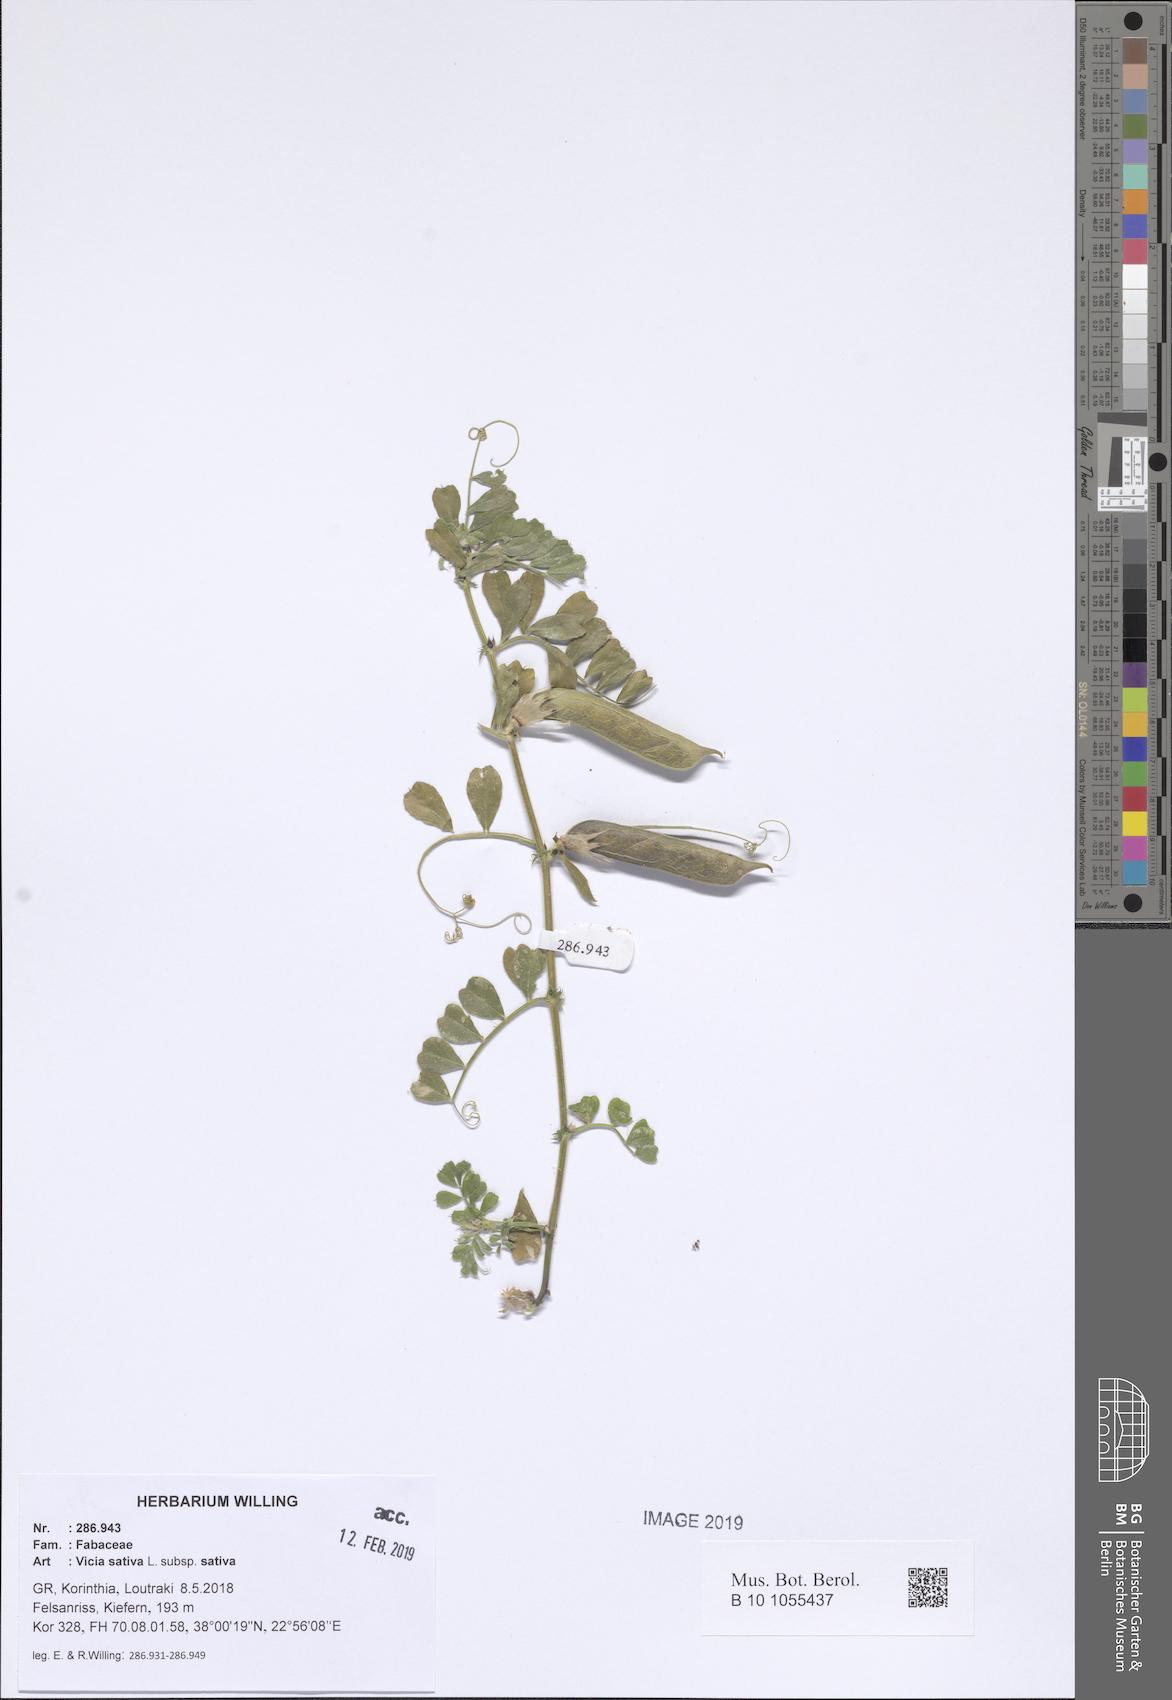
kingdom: Plantae
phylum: Tracheophyta
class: Magnoliopsida
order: Fabales
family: Fabaceae
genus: Vicia
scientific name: Vicia sativa
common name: Garden vetch
